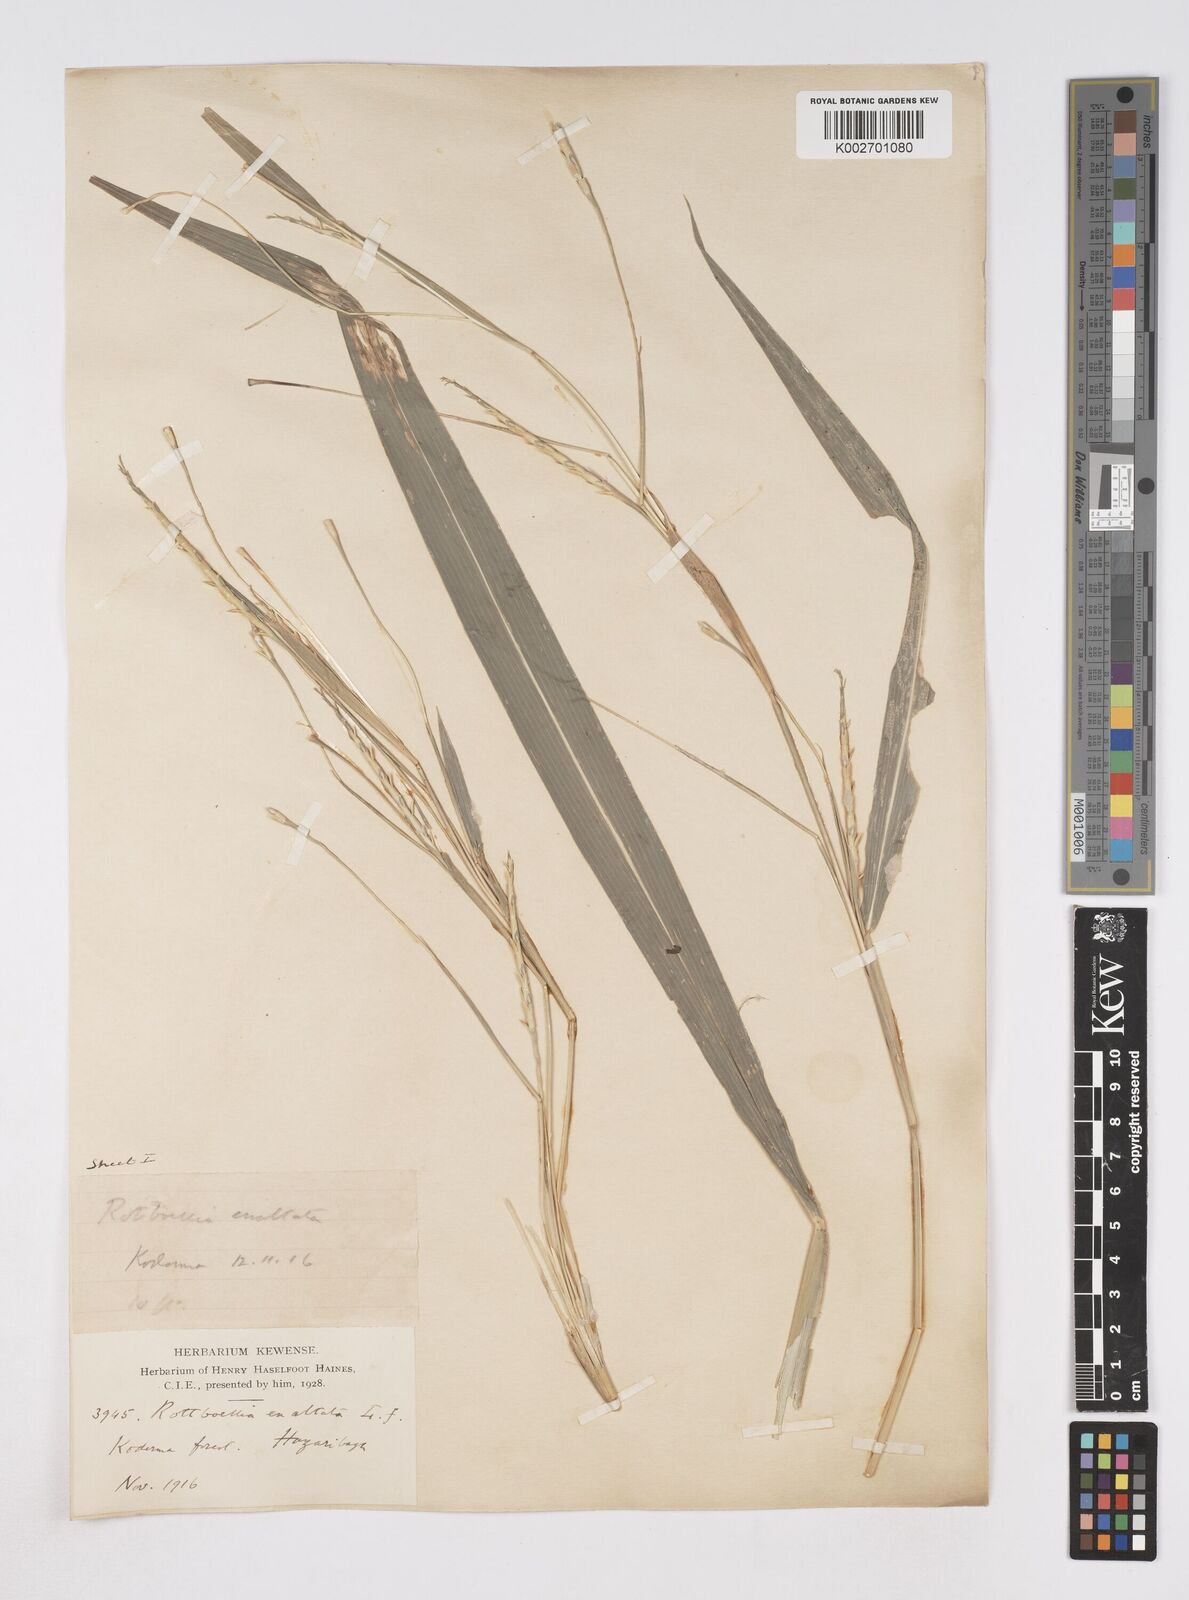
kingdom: Plantae
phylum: Tracheophyta
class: Liliopsida
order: Poales
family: Poaceae
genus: Ophiuros
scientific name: Ophiuros exaltatus
